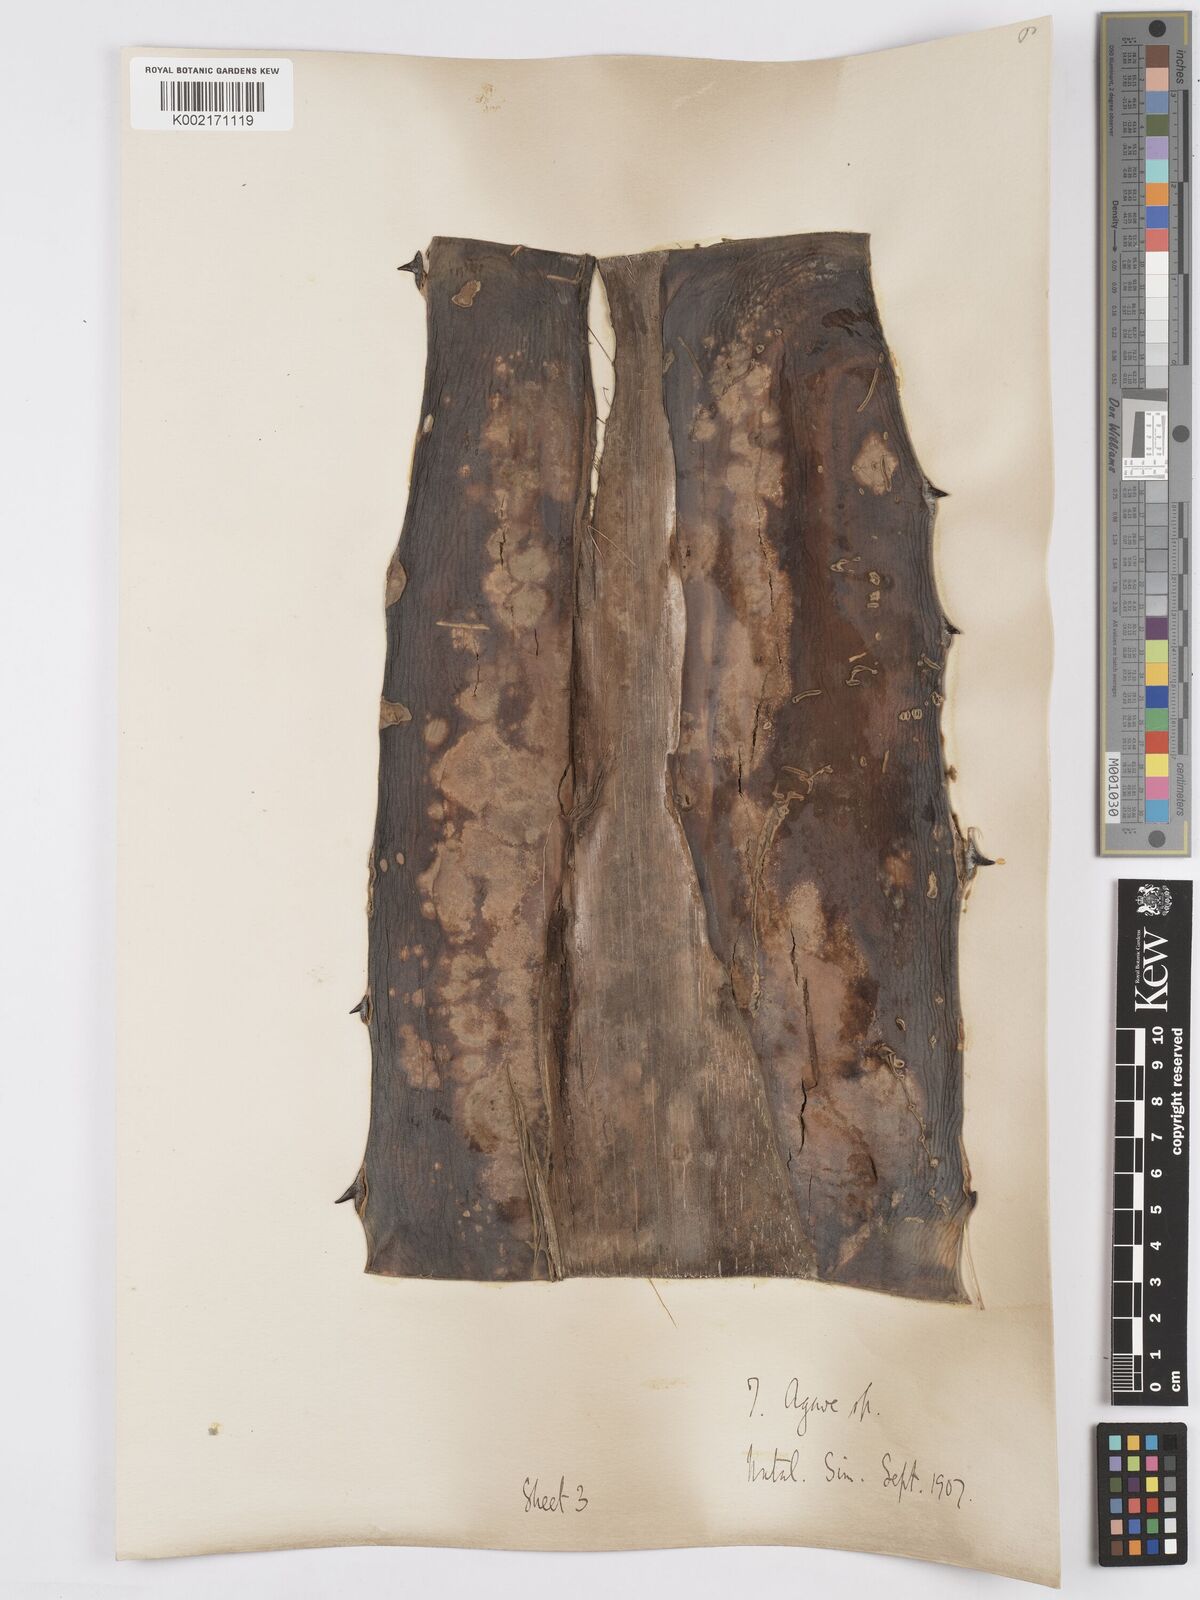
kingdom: Plantae
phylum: Tracheophyta
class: Liliopsida
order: Asparagales
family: Asparagaceae
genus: Agave
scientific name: Agave
